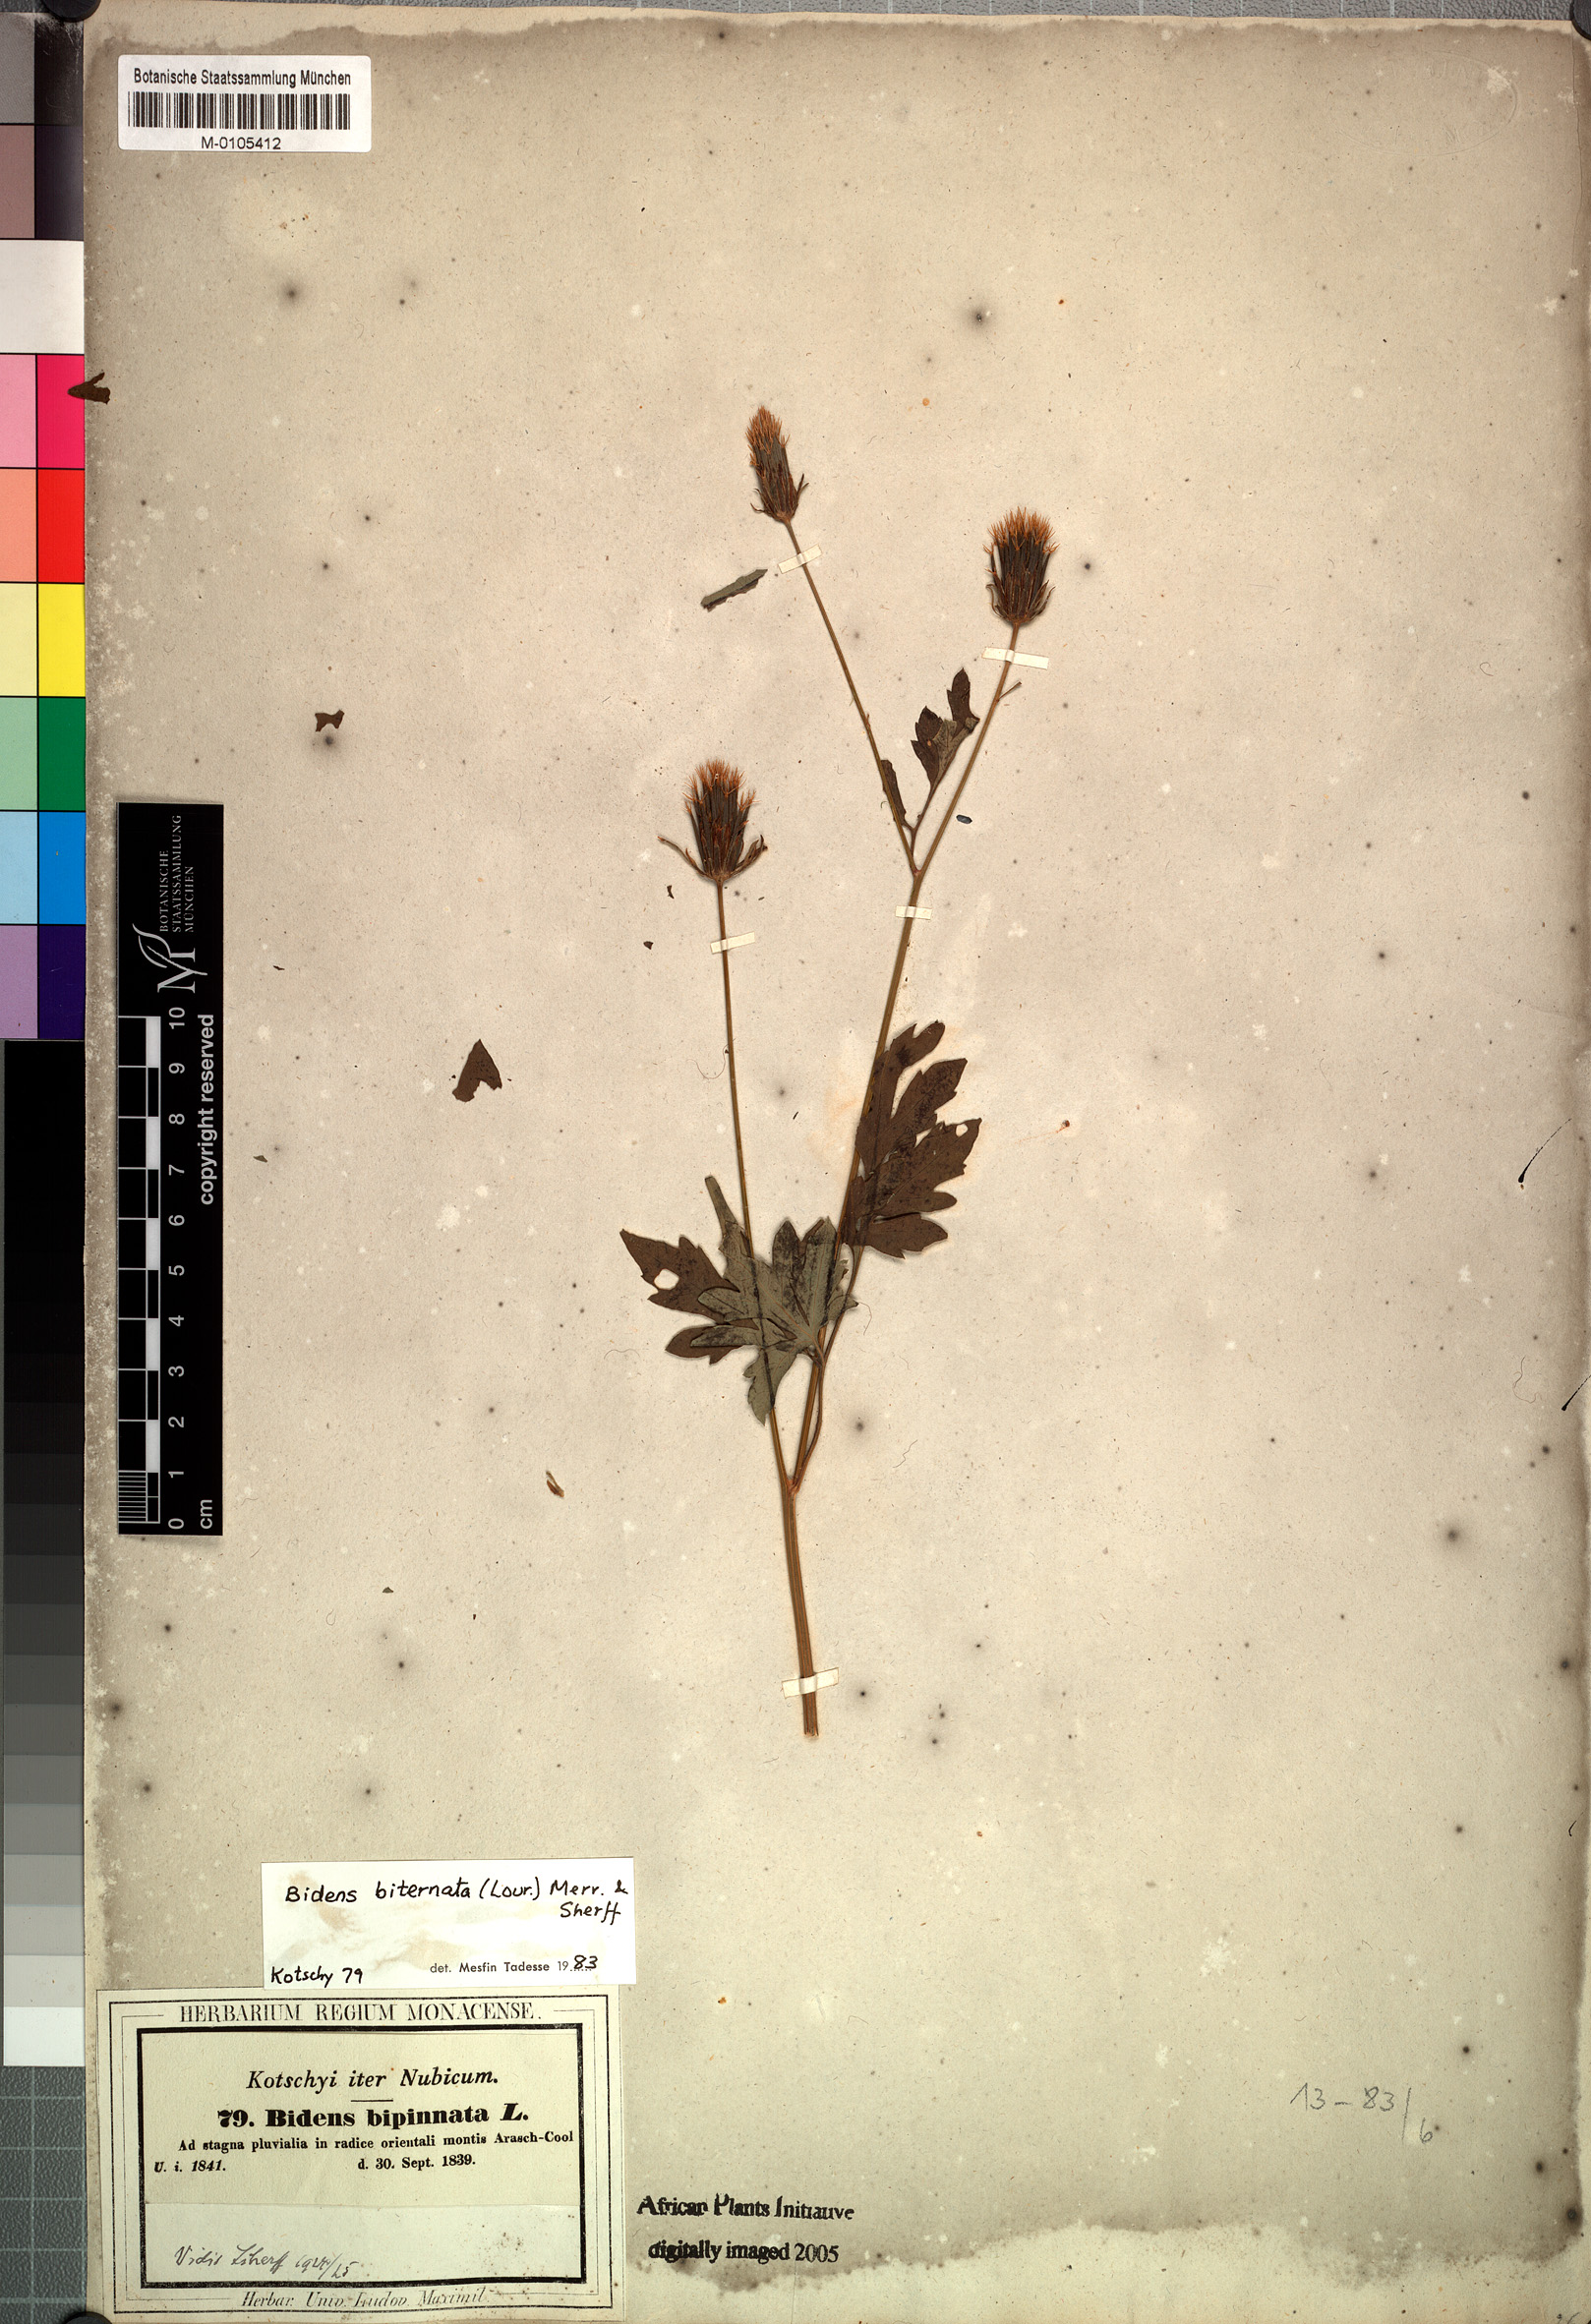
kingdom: Plantae
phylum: Tracheophyta
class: Magnoliopsida
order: Asterales
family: Asteraceae
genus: Bidens
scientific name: Bidens biternata
